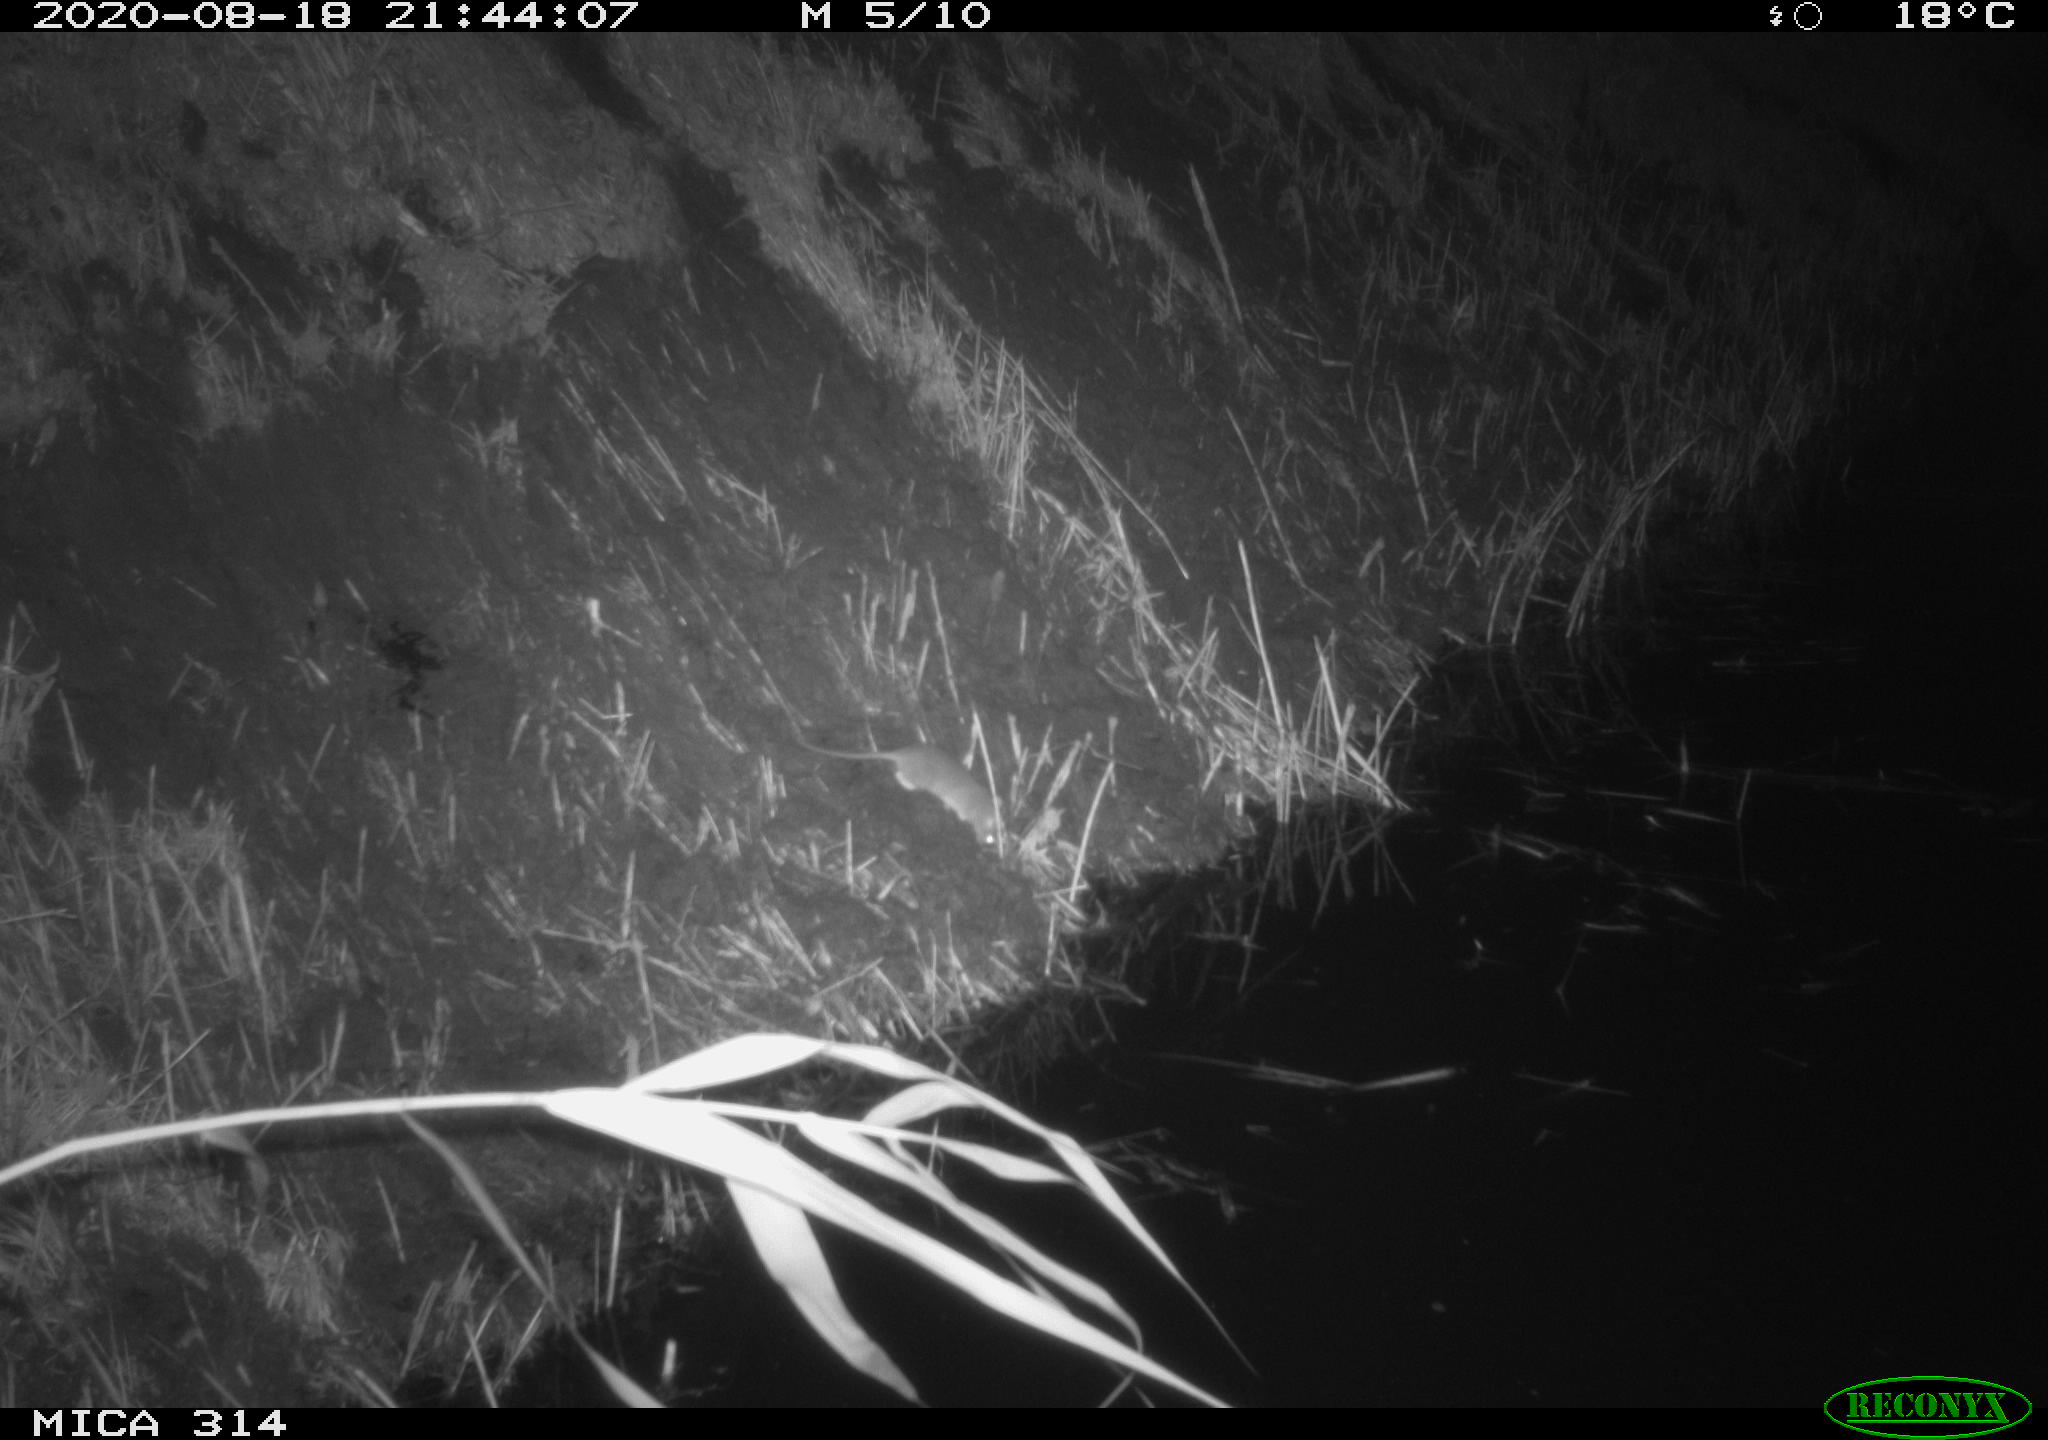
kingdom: Animalia
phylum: Chordata
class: Mammalia
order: Rodentia
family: Muridae
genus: Rattus
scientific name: Rattus norvegicus
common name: Brown rat
